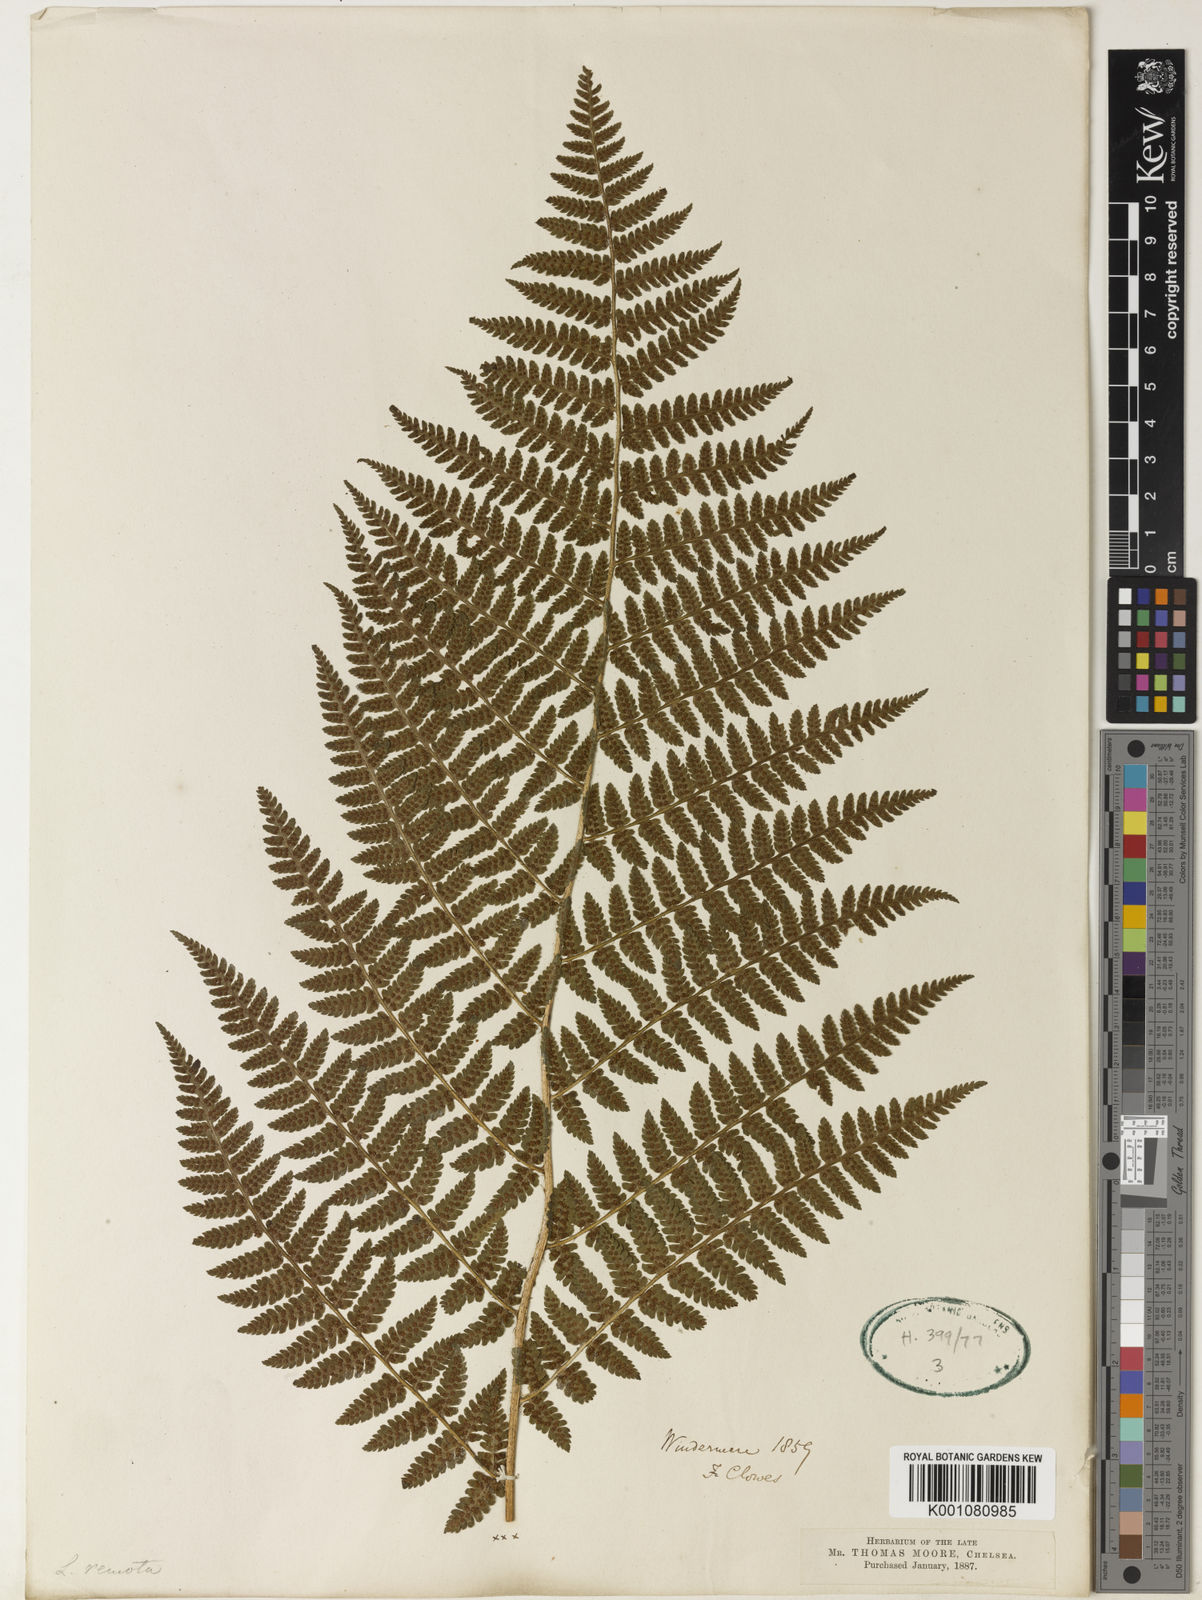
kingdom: Plantae
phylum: Tracheophyta
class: Polypodiopsida
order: Polypodiales
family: Dryopteridaceae
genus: Dryopteris
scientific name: Dryopteris filix-mas
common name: Male fern
